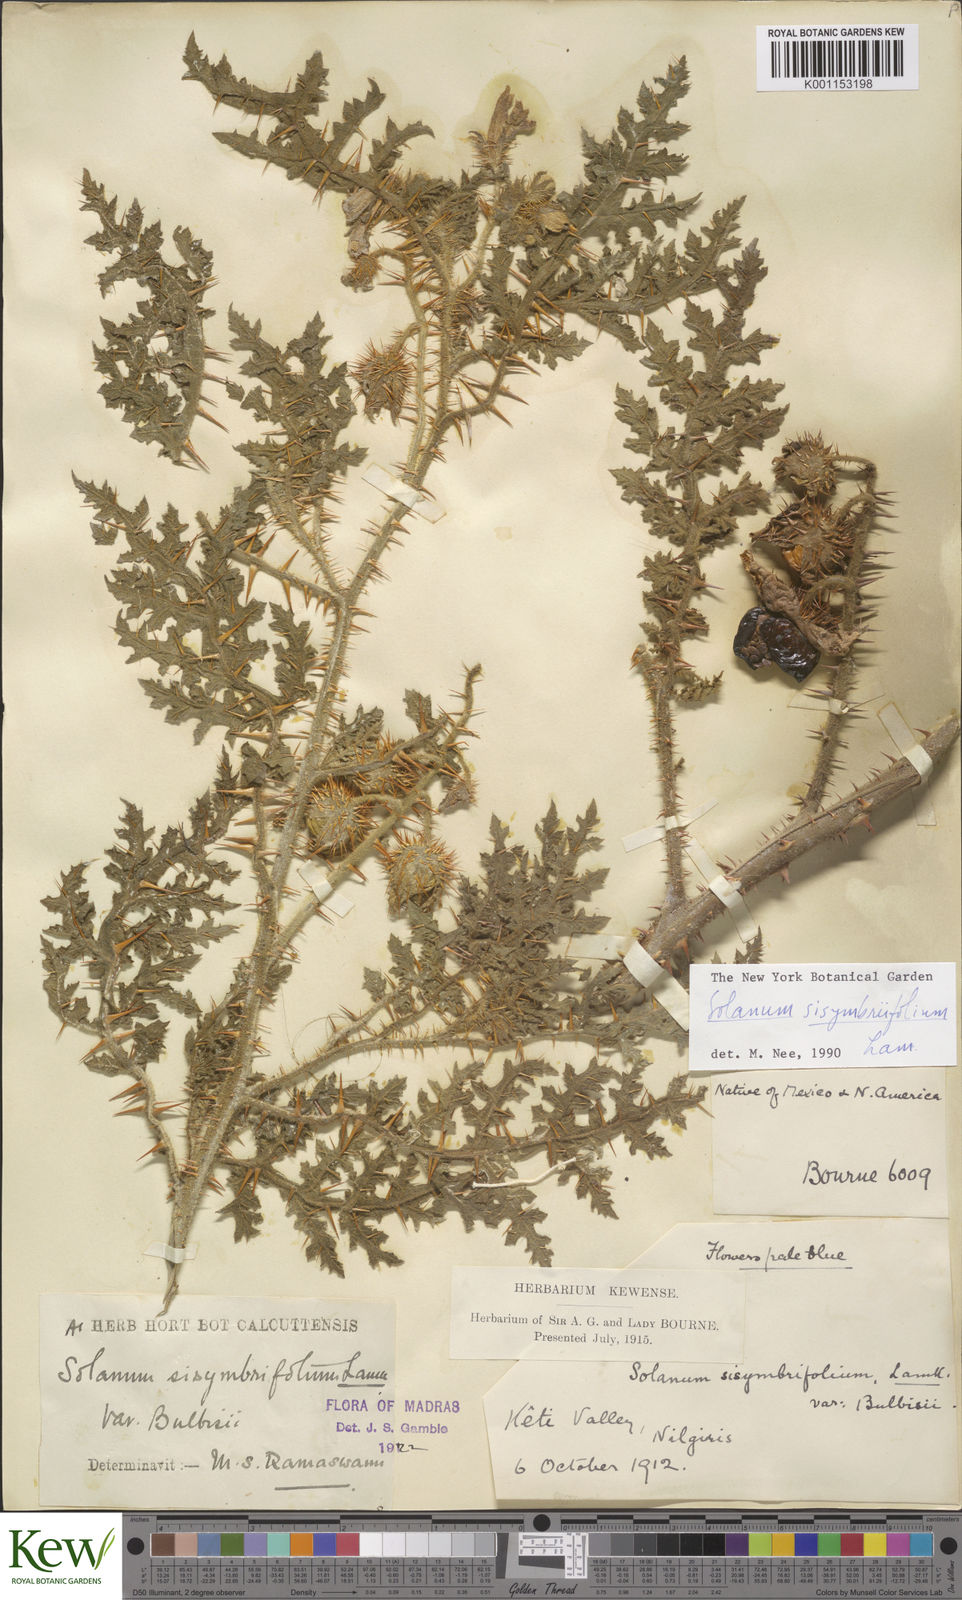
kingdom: Plantae
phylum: Tracheophyta
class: Magnoliopsida
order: Solanales
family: Solanaceae
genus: Solanum
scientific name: Solanum sisymbriifolium
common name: Red buffalo-bur
